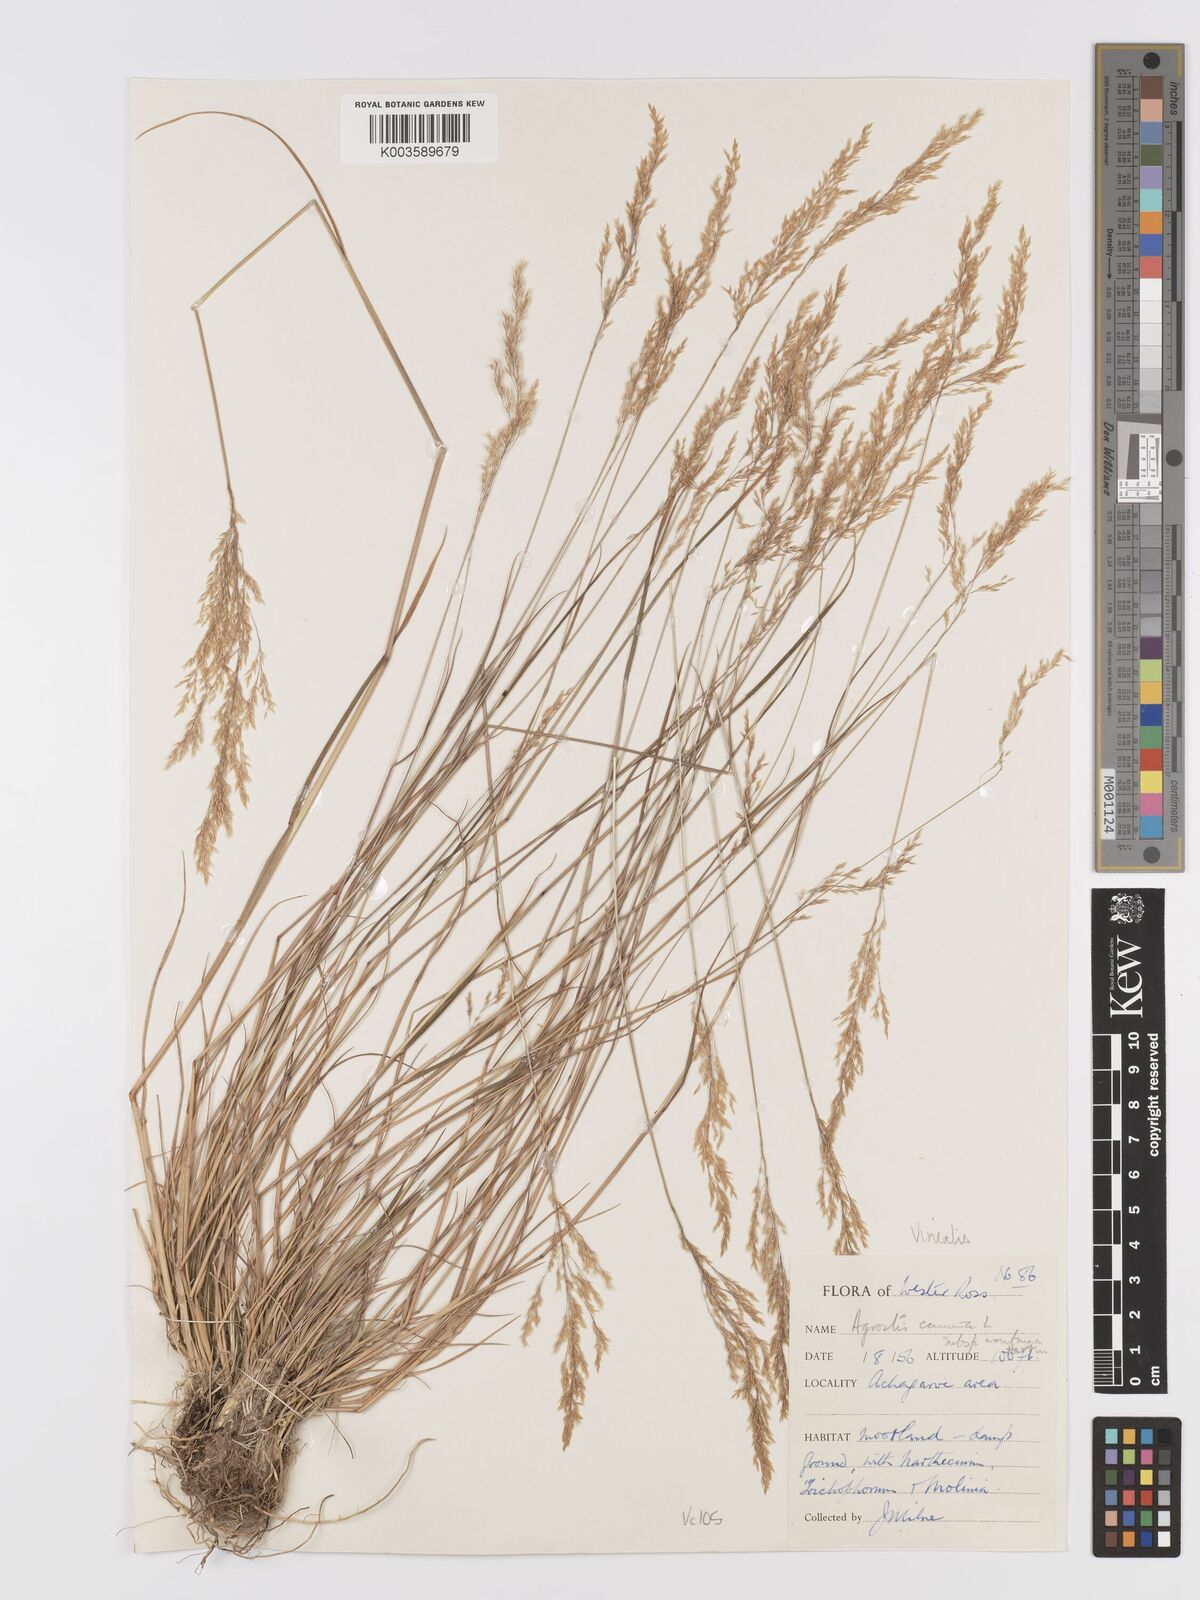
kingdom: Plantae
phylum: Tracheophyta
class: Liliopsida
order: Poales
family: Poaceae
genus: Agrostis
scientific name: Agrostis
